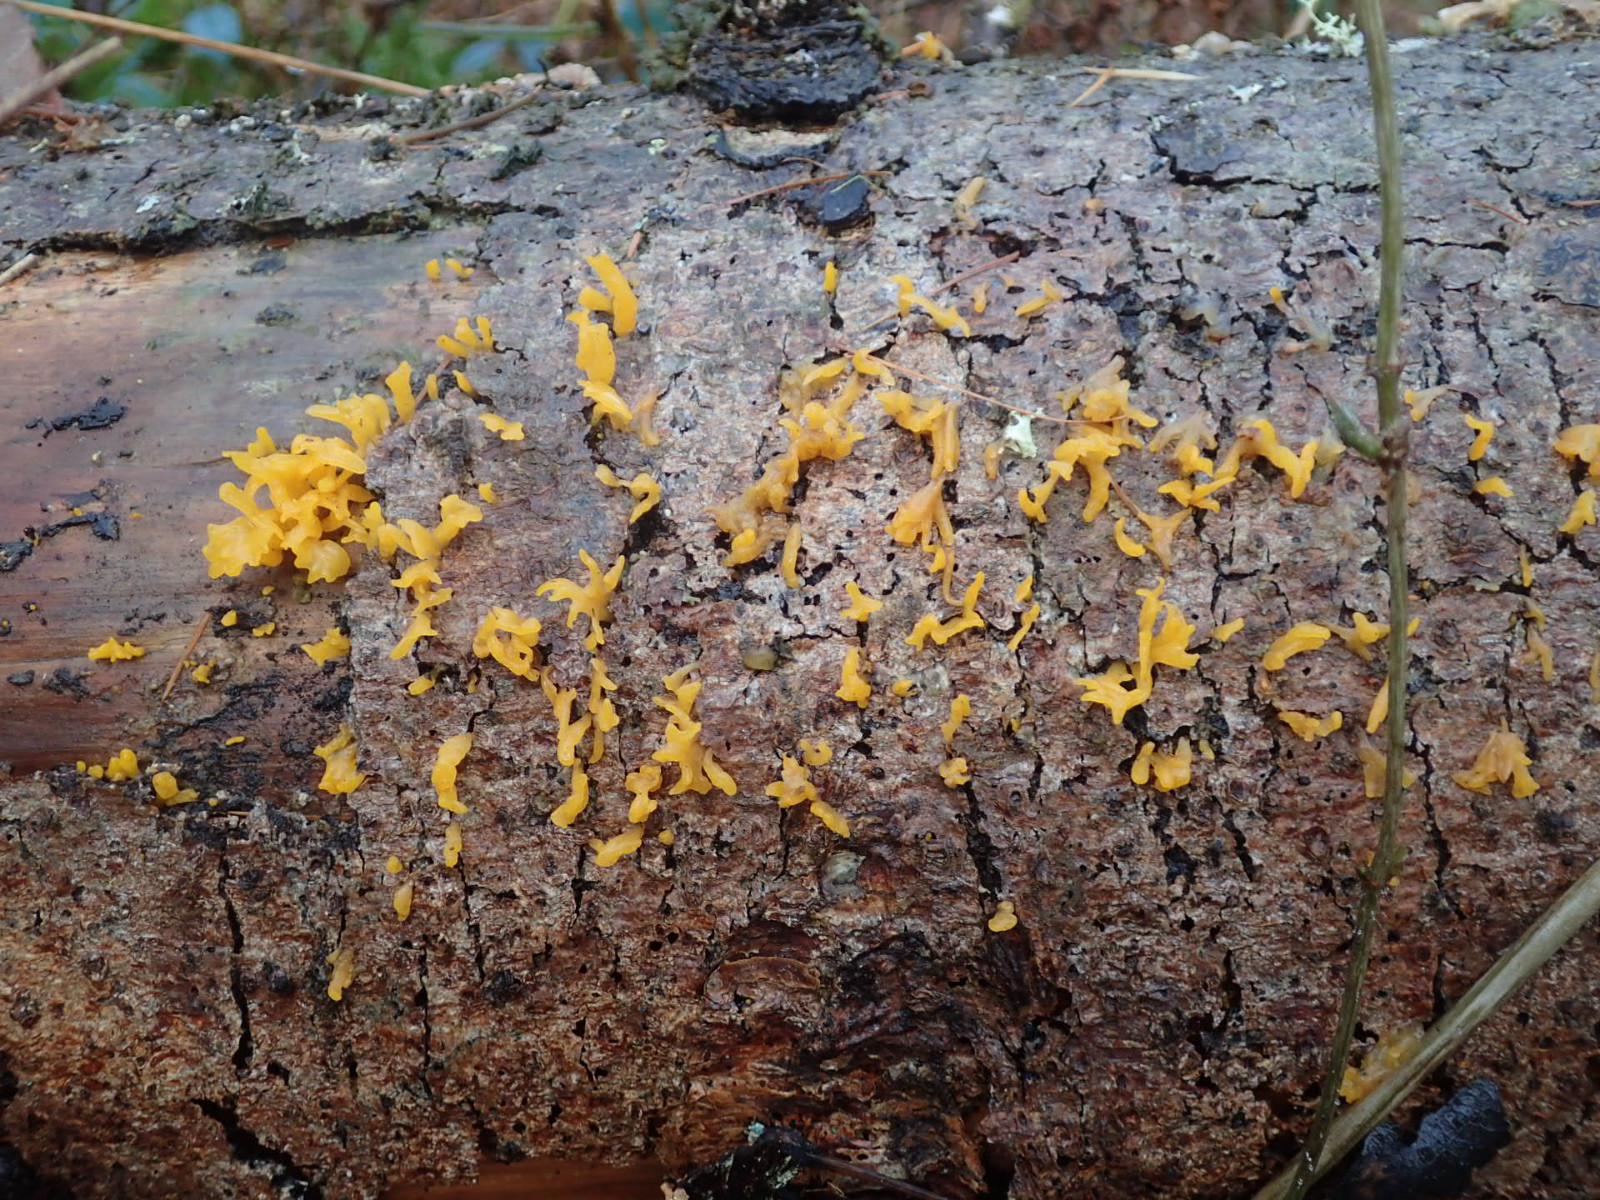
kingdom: Fungi
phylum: Basidiomycota
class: Dacrymycetes
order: Dacrymycetales
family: Dacrymycetaceae
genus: Calocera
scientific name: Calocera furcata
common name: fyrre-guldgaffel
